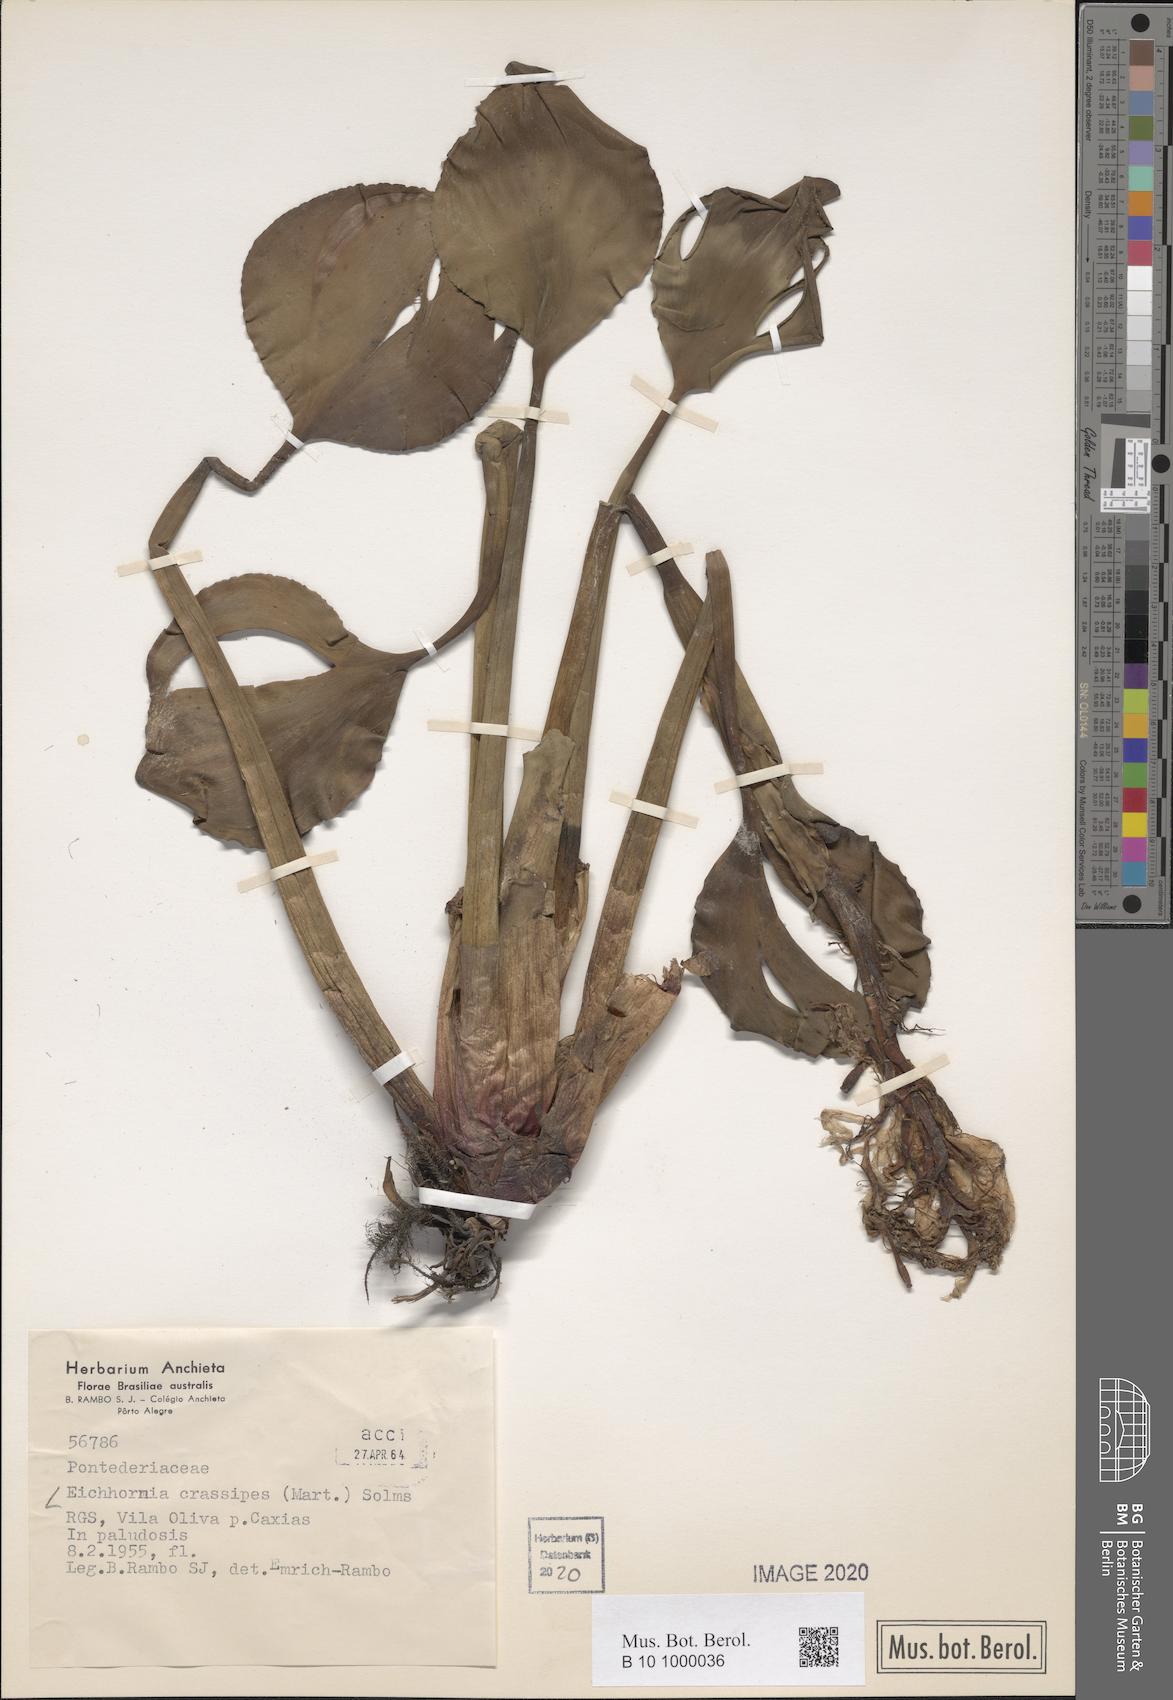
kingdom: Plantae
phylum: Tracheophyta
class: Liliopsida
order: Commelinales
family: Pontederiaceae
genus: Pontederia
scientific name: Pontederia crassipes
